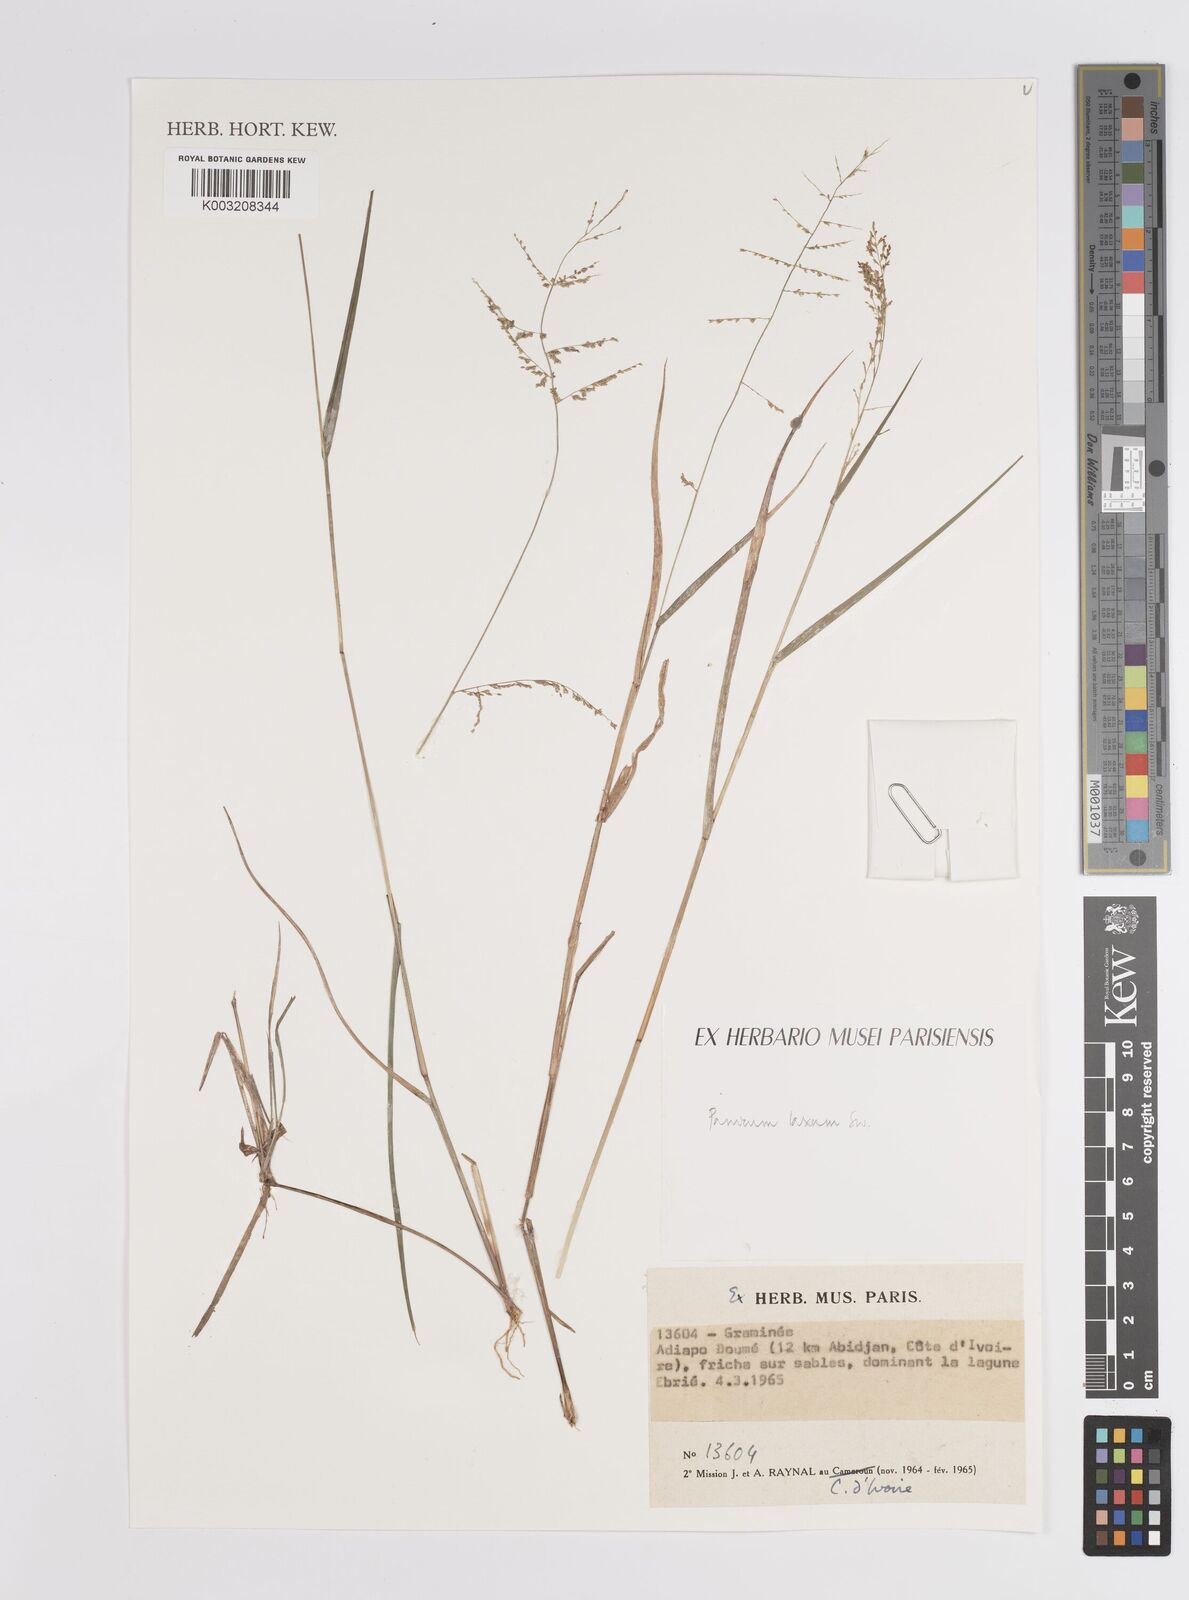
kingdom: Plantae
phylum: Tracheophyta
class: Liliopsida
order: Poales
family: Poaceae
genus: Steinchisma
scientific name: Steinchisma laxum
